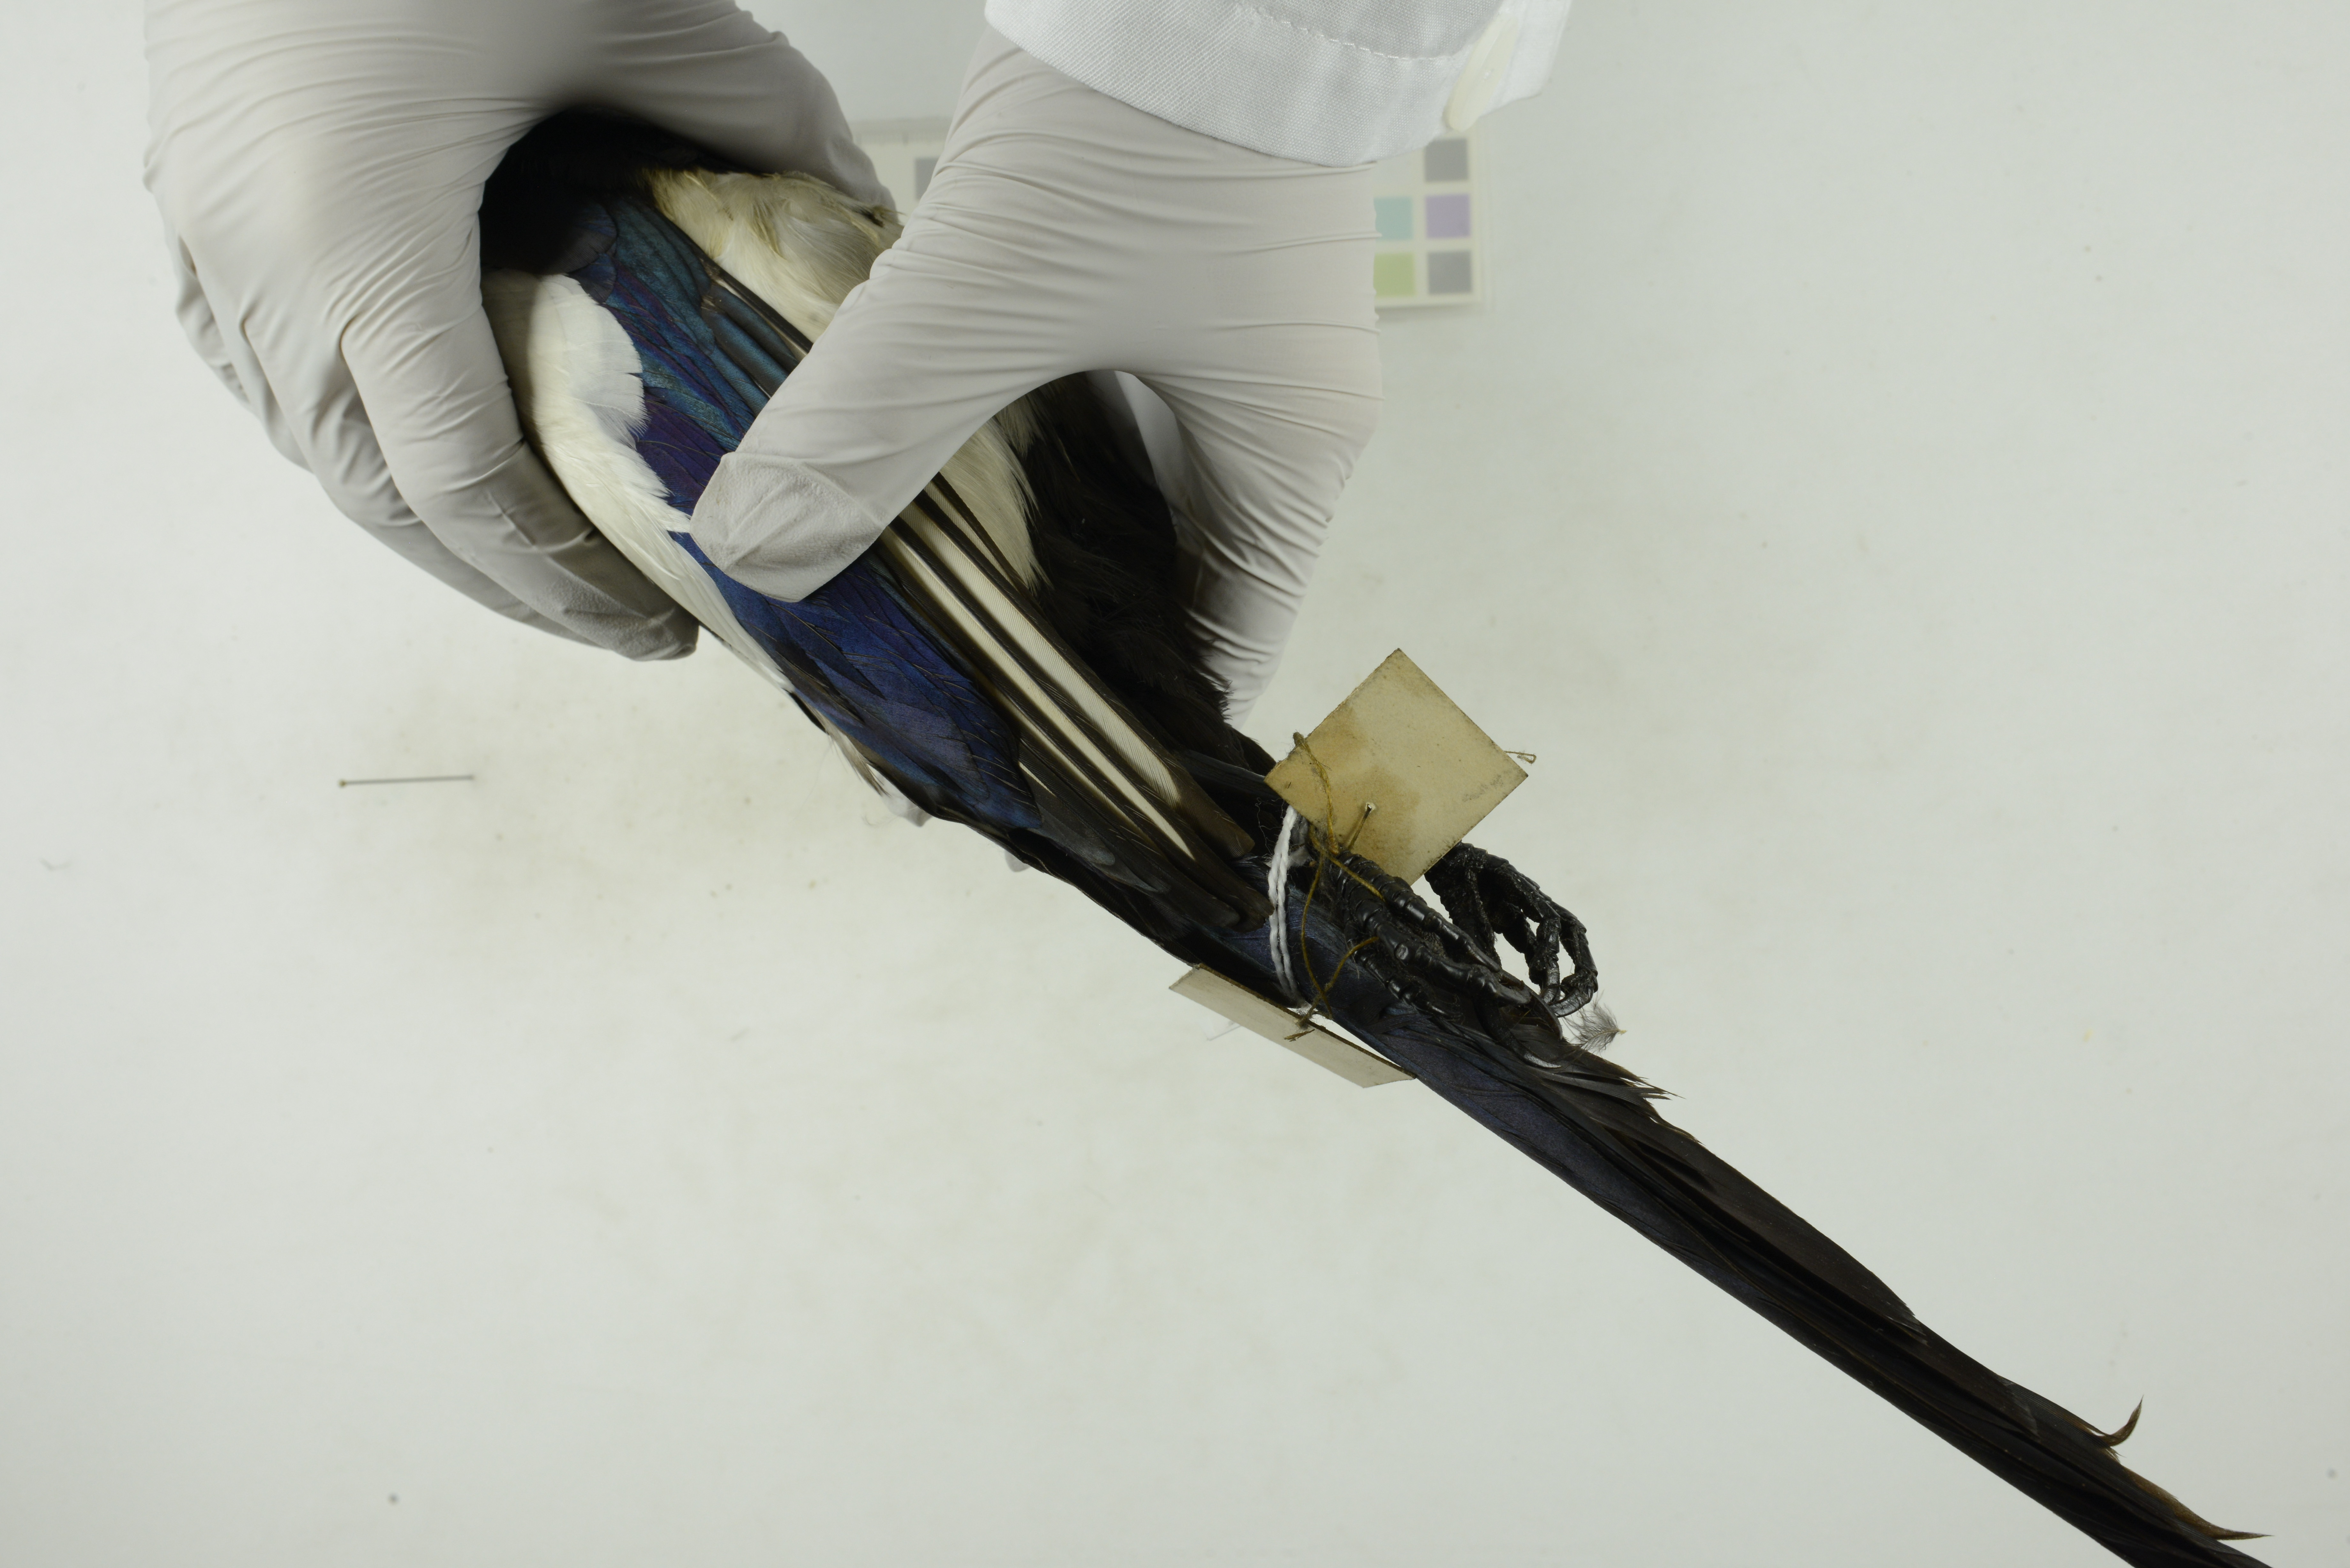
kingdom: Animalia
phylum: Chordata
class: Aves
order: Passeriformes
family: Corvidae
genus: Pica
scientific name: Pica pica
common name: Eurasian magpie
